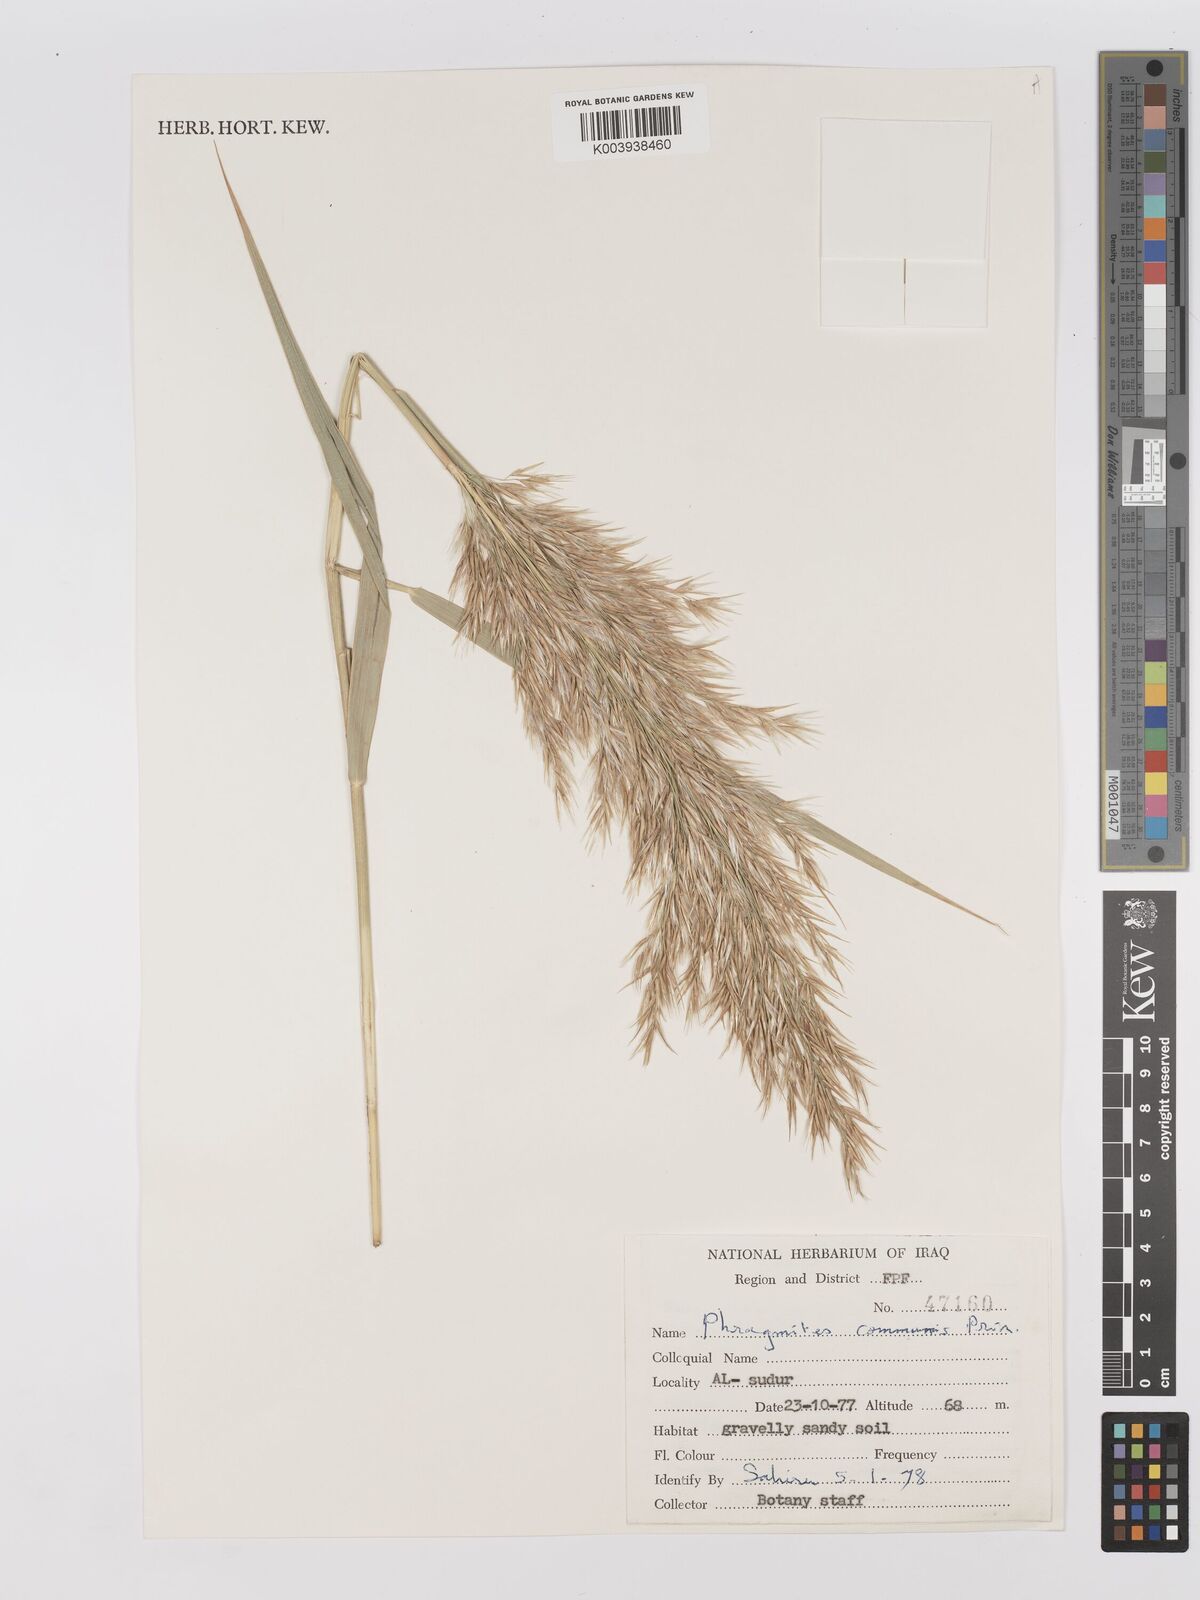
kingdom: Plantae
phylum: Tracheophyta
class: Liliopsida
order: Poales
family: Poaceae
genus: Phragmites
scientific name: Phragmites australis
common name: Common reed
